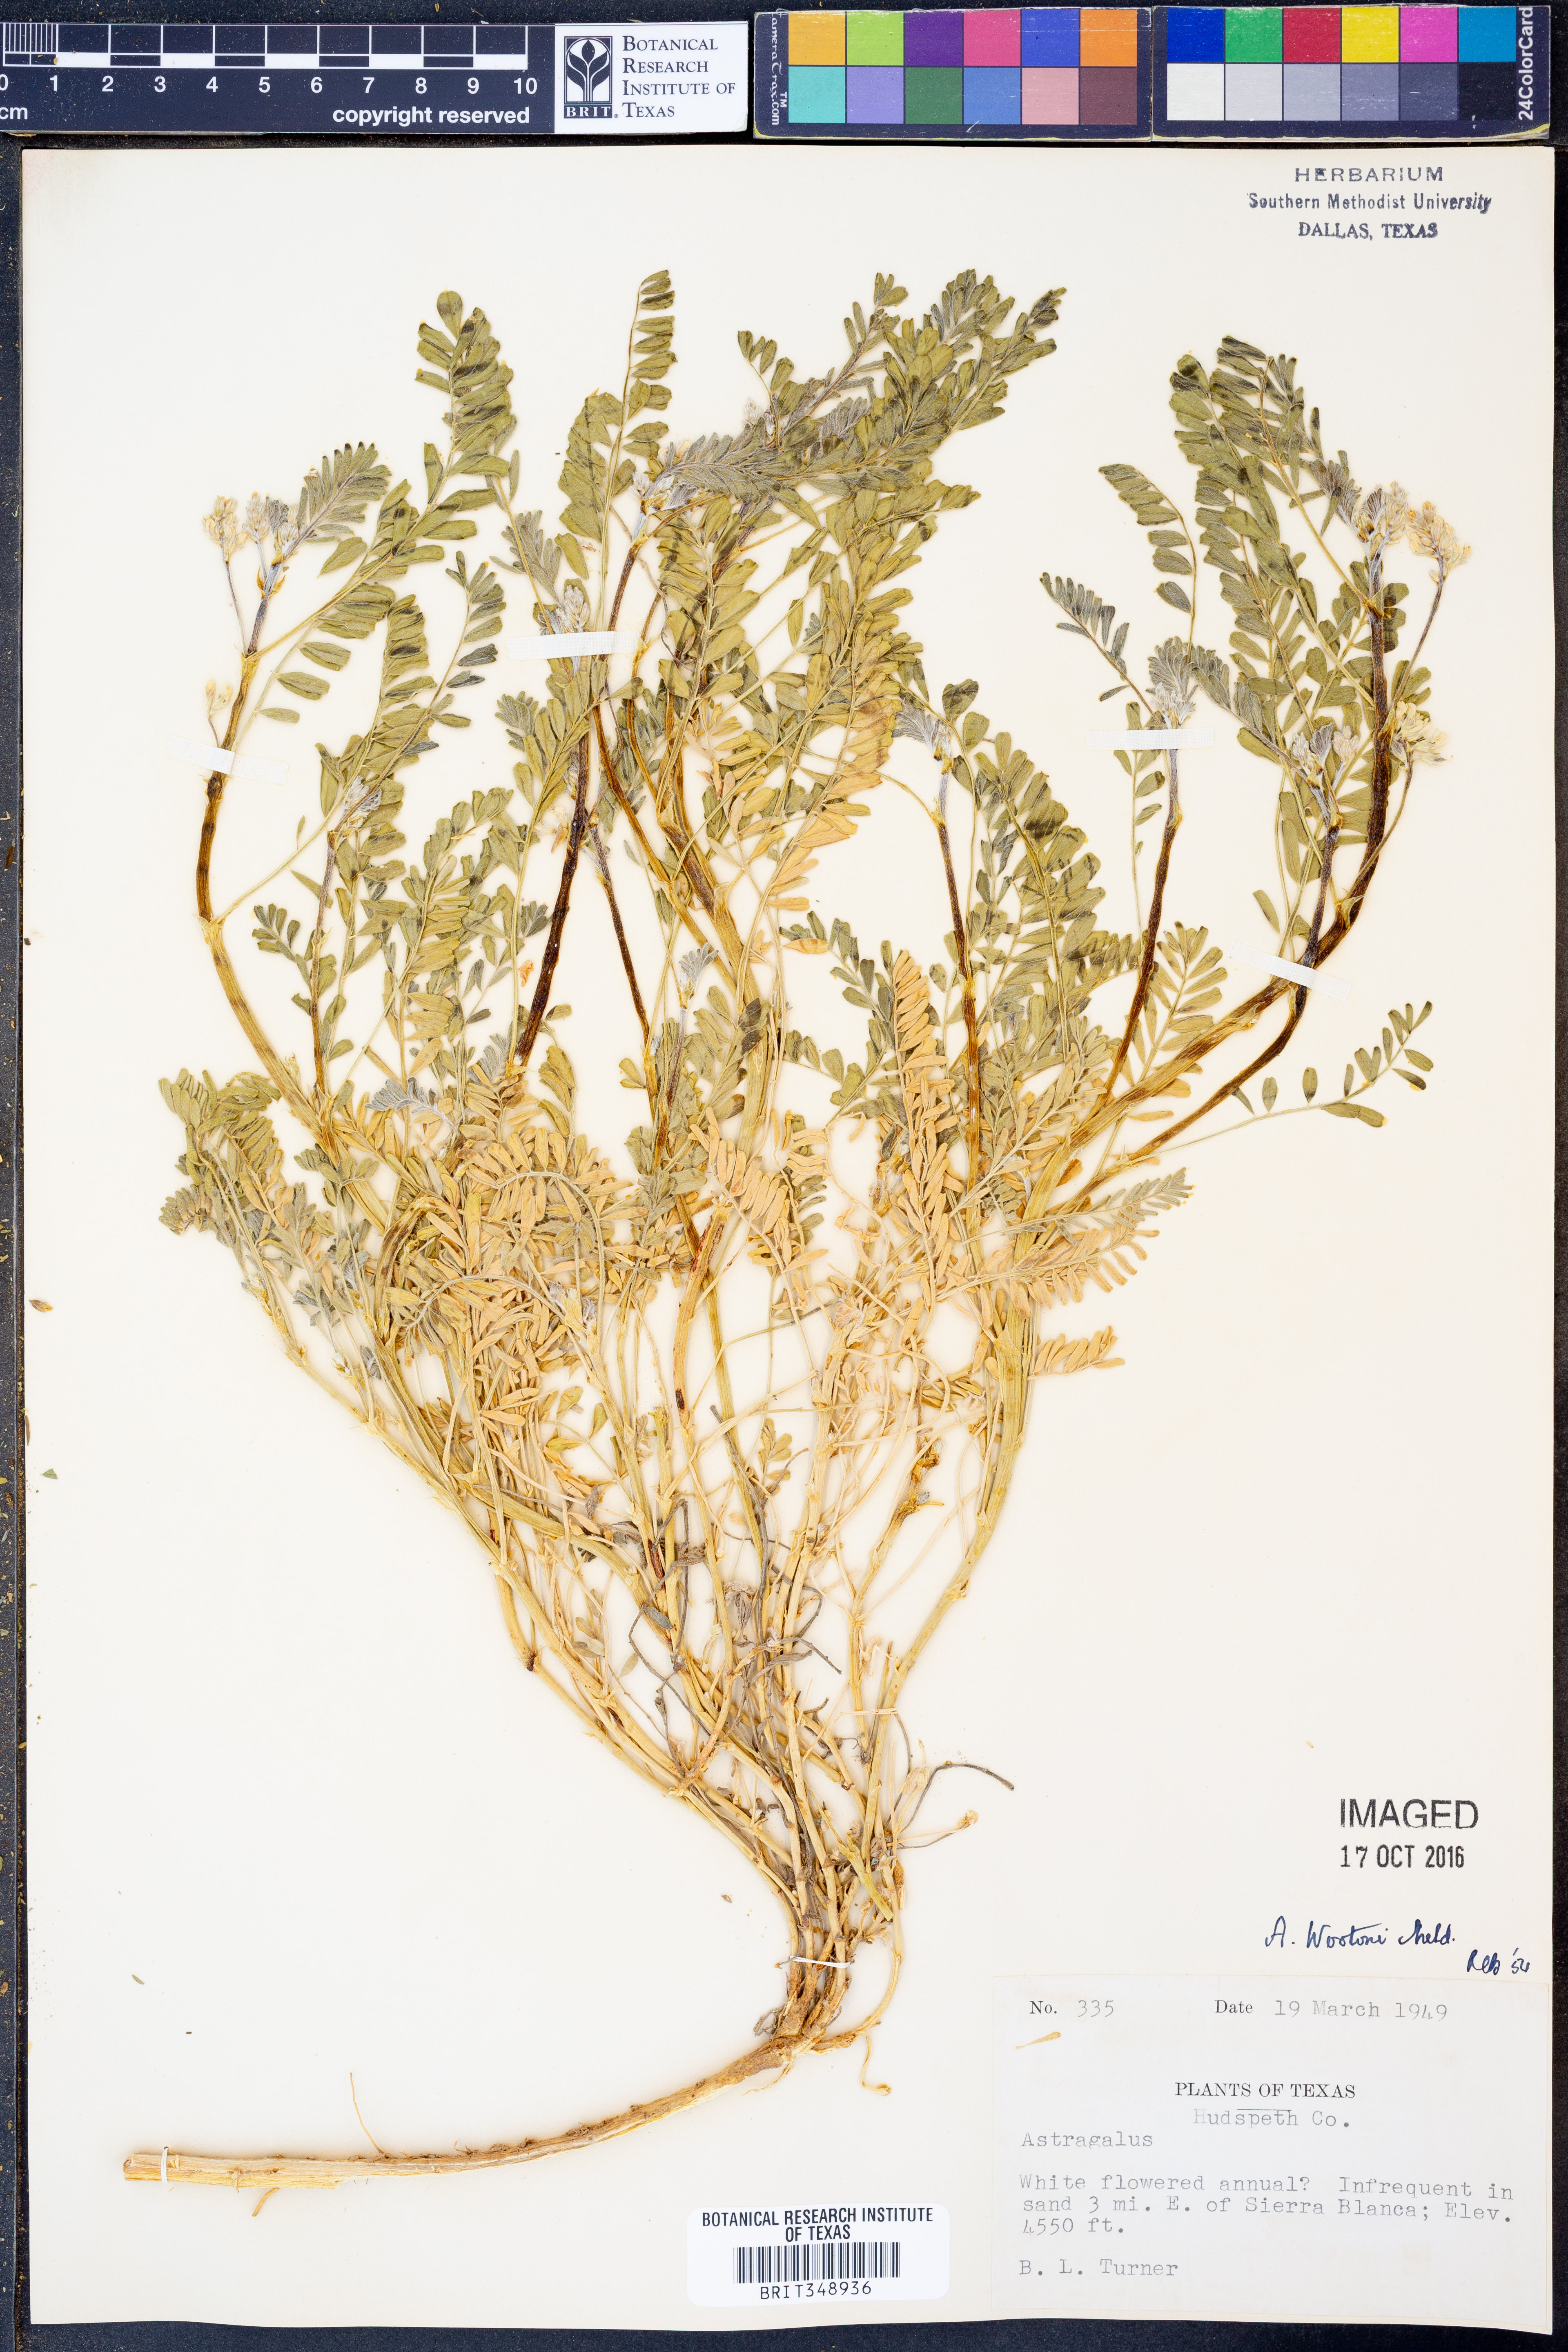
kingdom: Plantae
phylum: Tracheophyta
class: Magnoliopsida
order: Fabales
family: Fabaceae
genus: Astragalus
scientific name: Astragalus wootonii
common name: Wooton's milk-vetch
